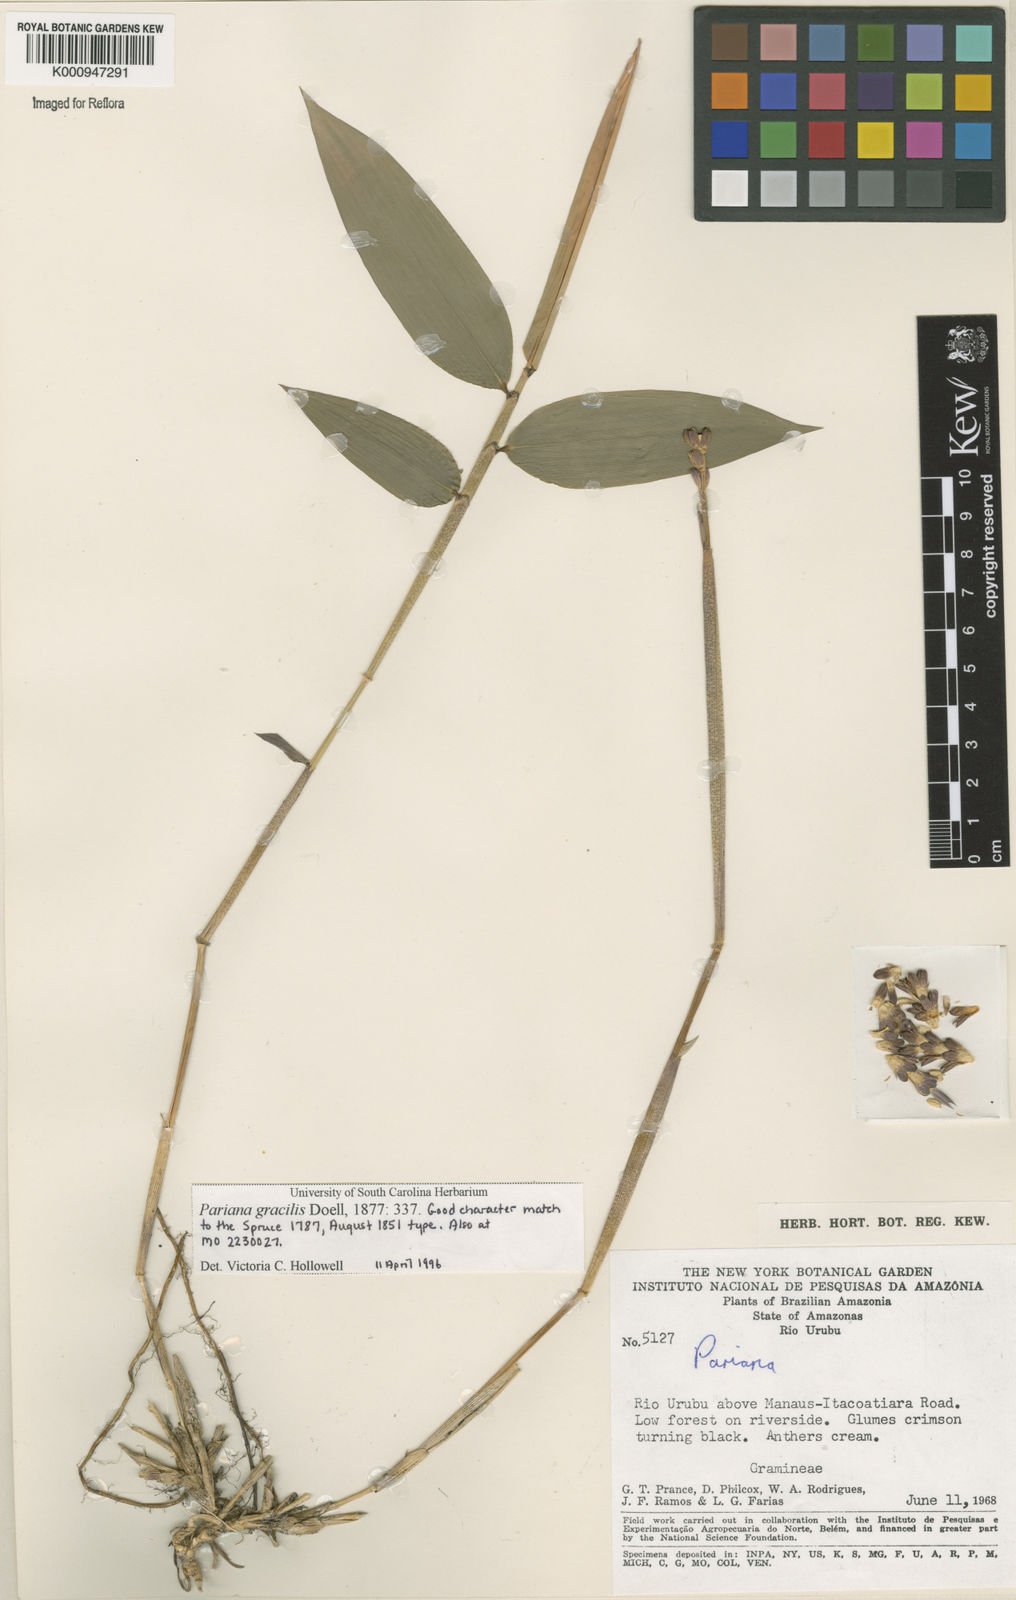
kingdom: Plantae
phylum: Tracheophyta
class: Liliopsida
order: Poales
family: Poaceae
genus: Pariana
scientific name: Pariana
